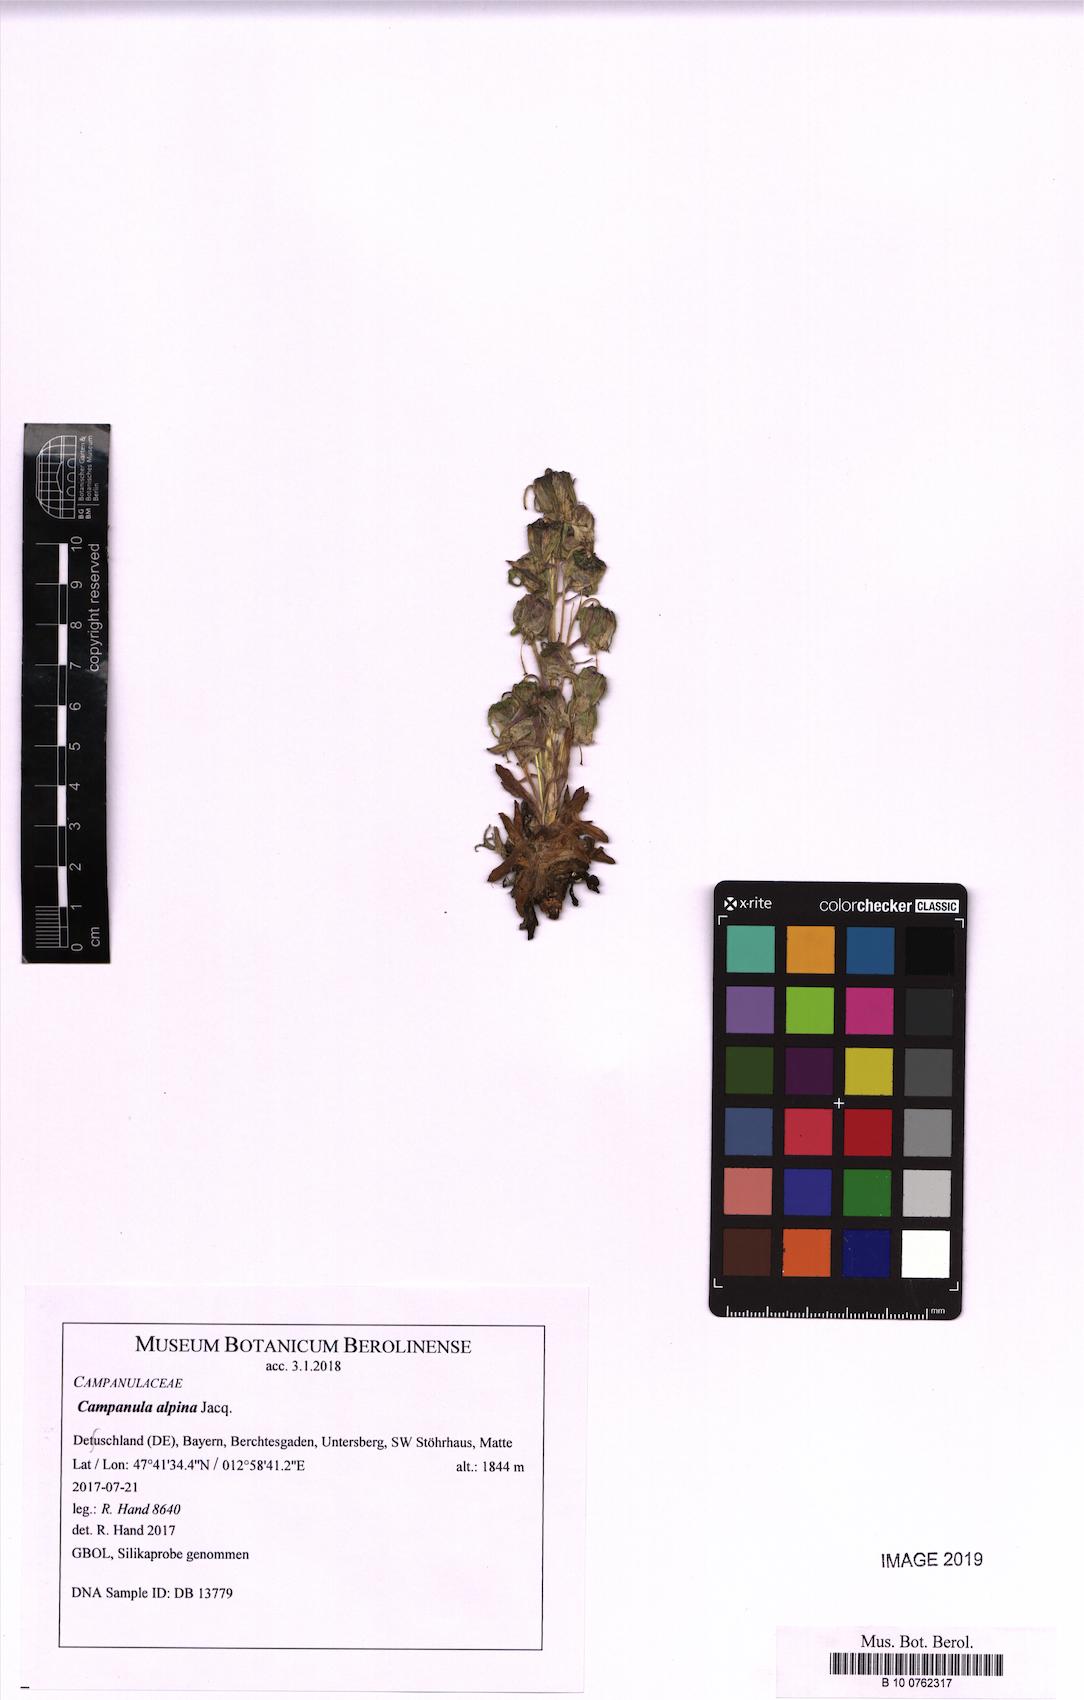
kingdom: Plantae
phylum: Tracheophyta
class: Magnoliopsida
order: Asterales
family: Campanulaceae
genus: Campanula
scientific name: Campanula alpina
